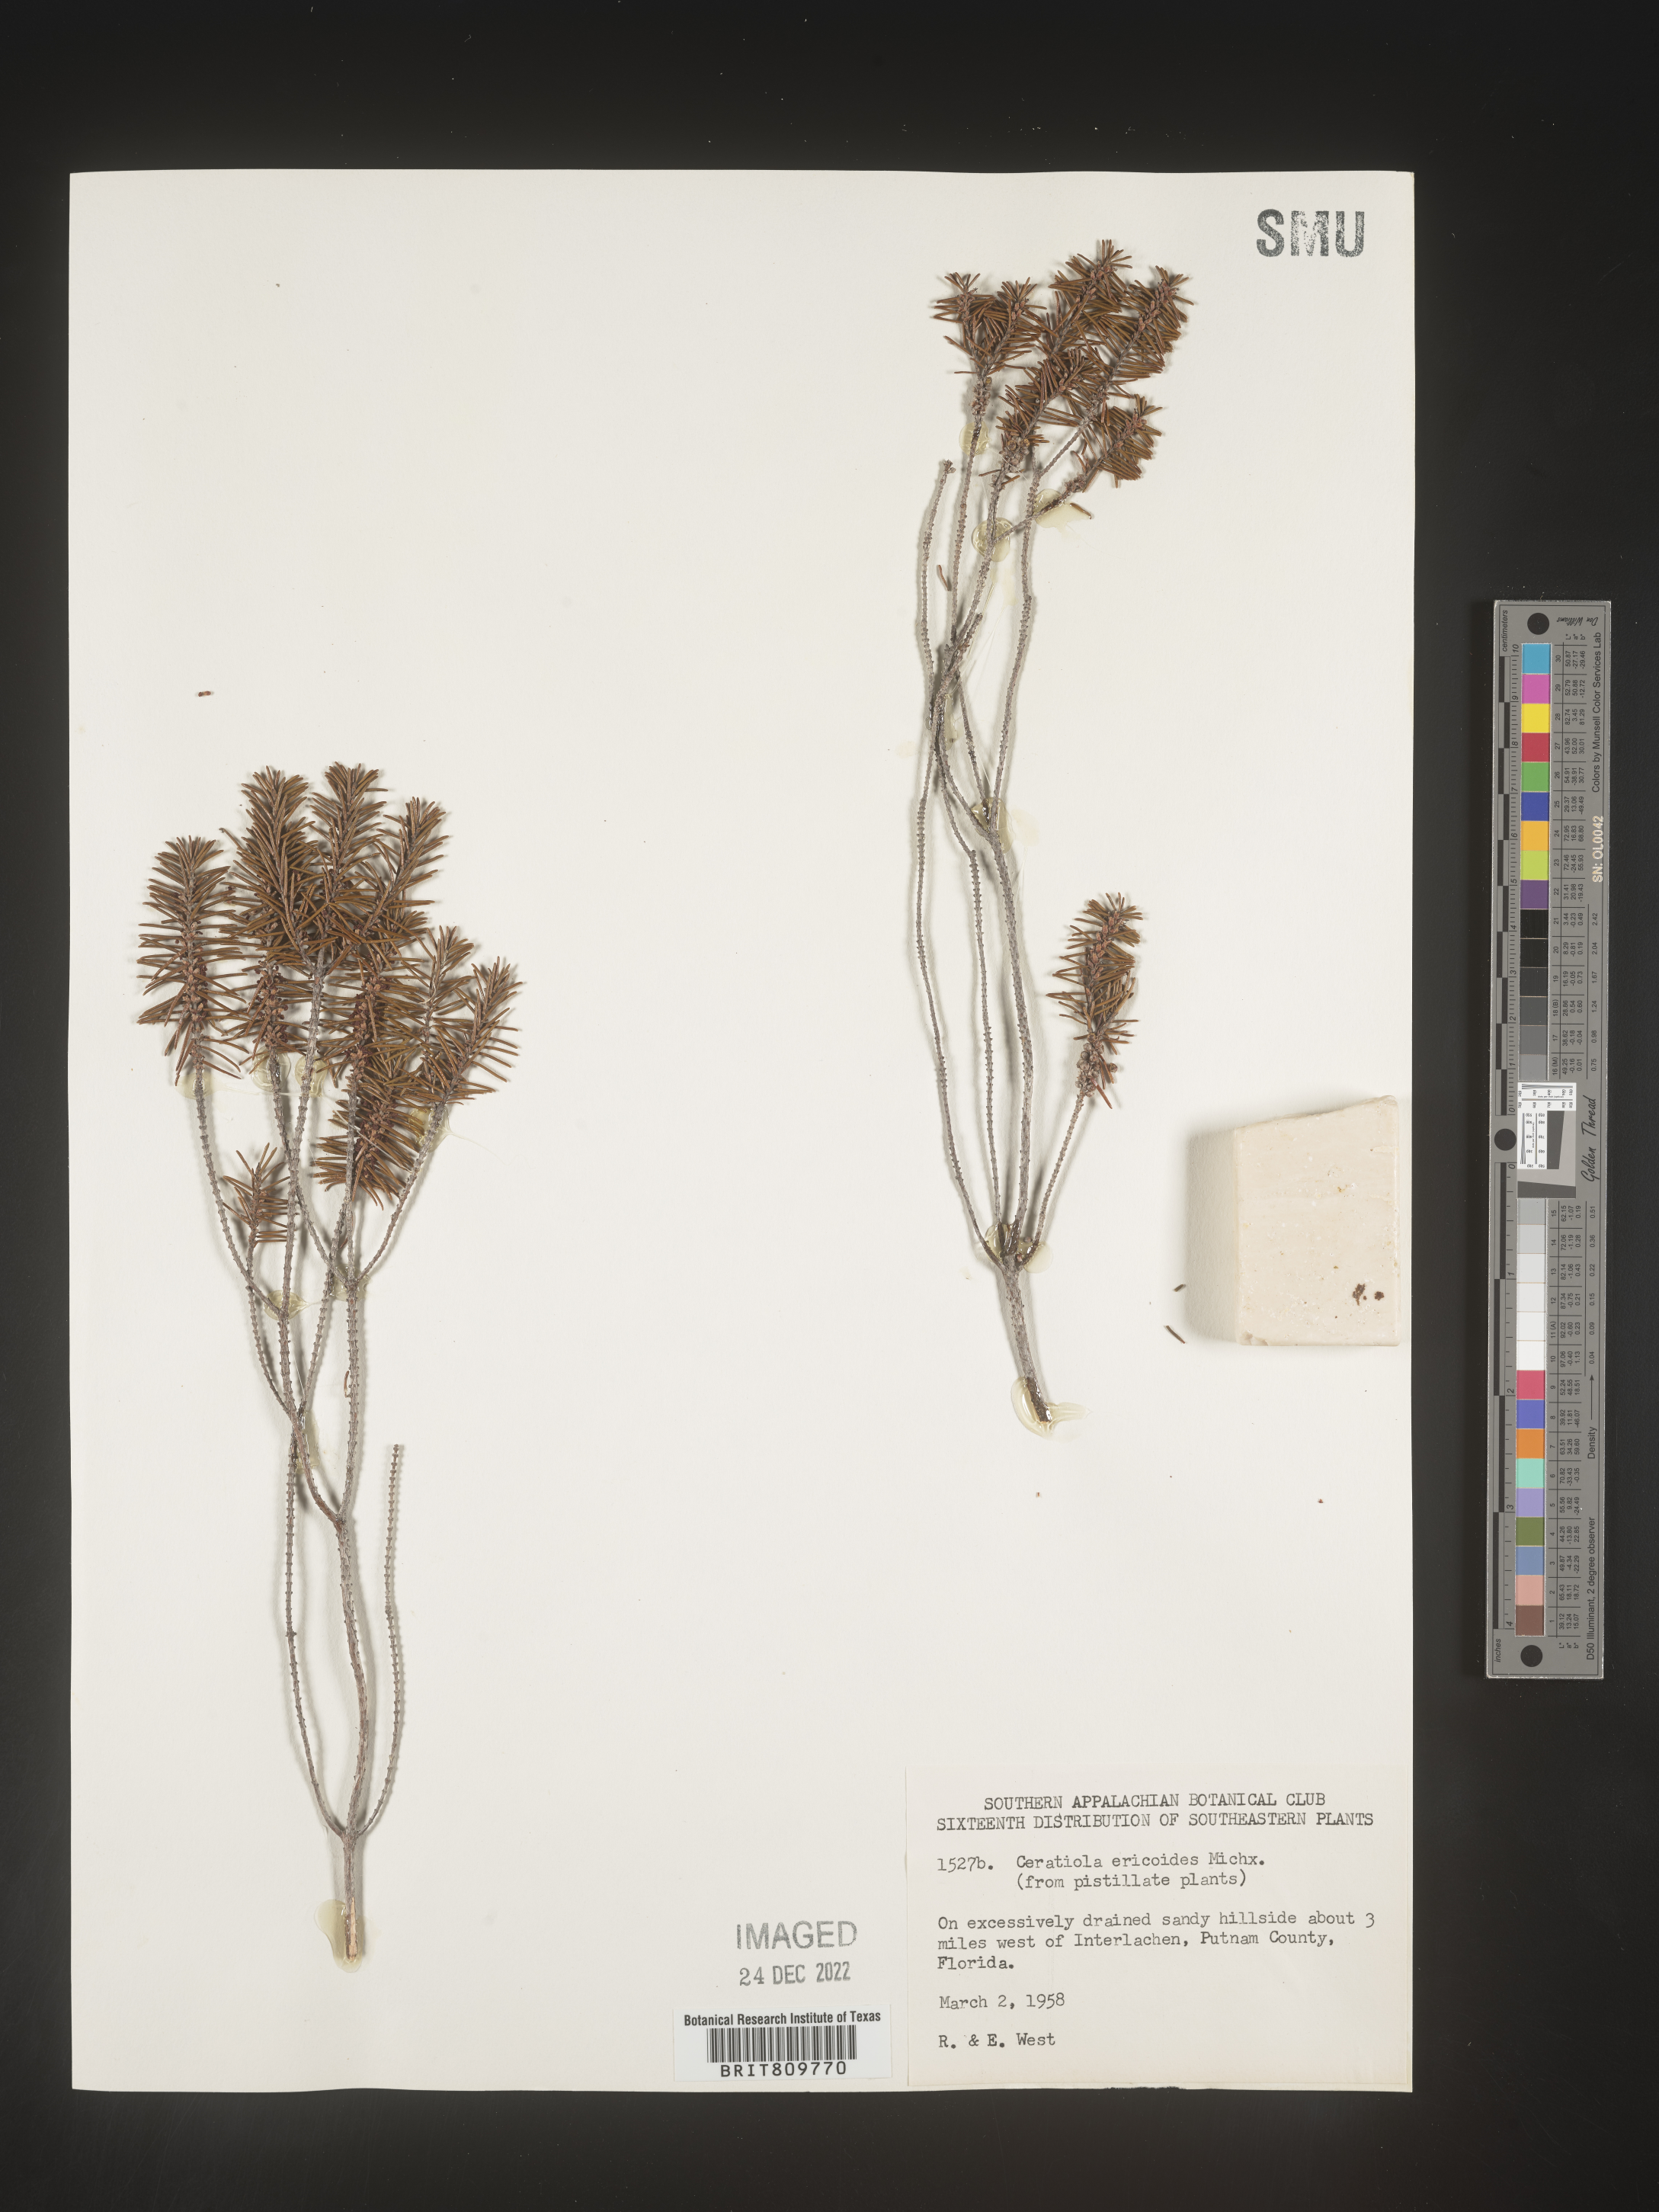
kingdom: Plantae
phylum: Tracheophyta
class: Magnoliopsida
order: Ericales
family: Ericaceae
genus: Ceratiola
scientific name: Ceratiola ericoides
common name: Sandhill-rosemary
